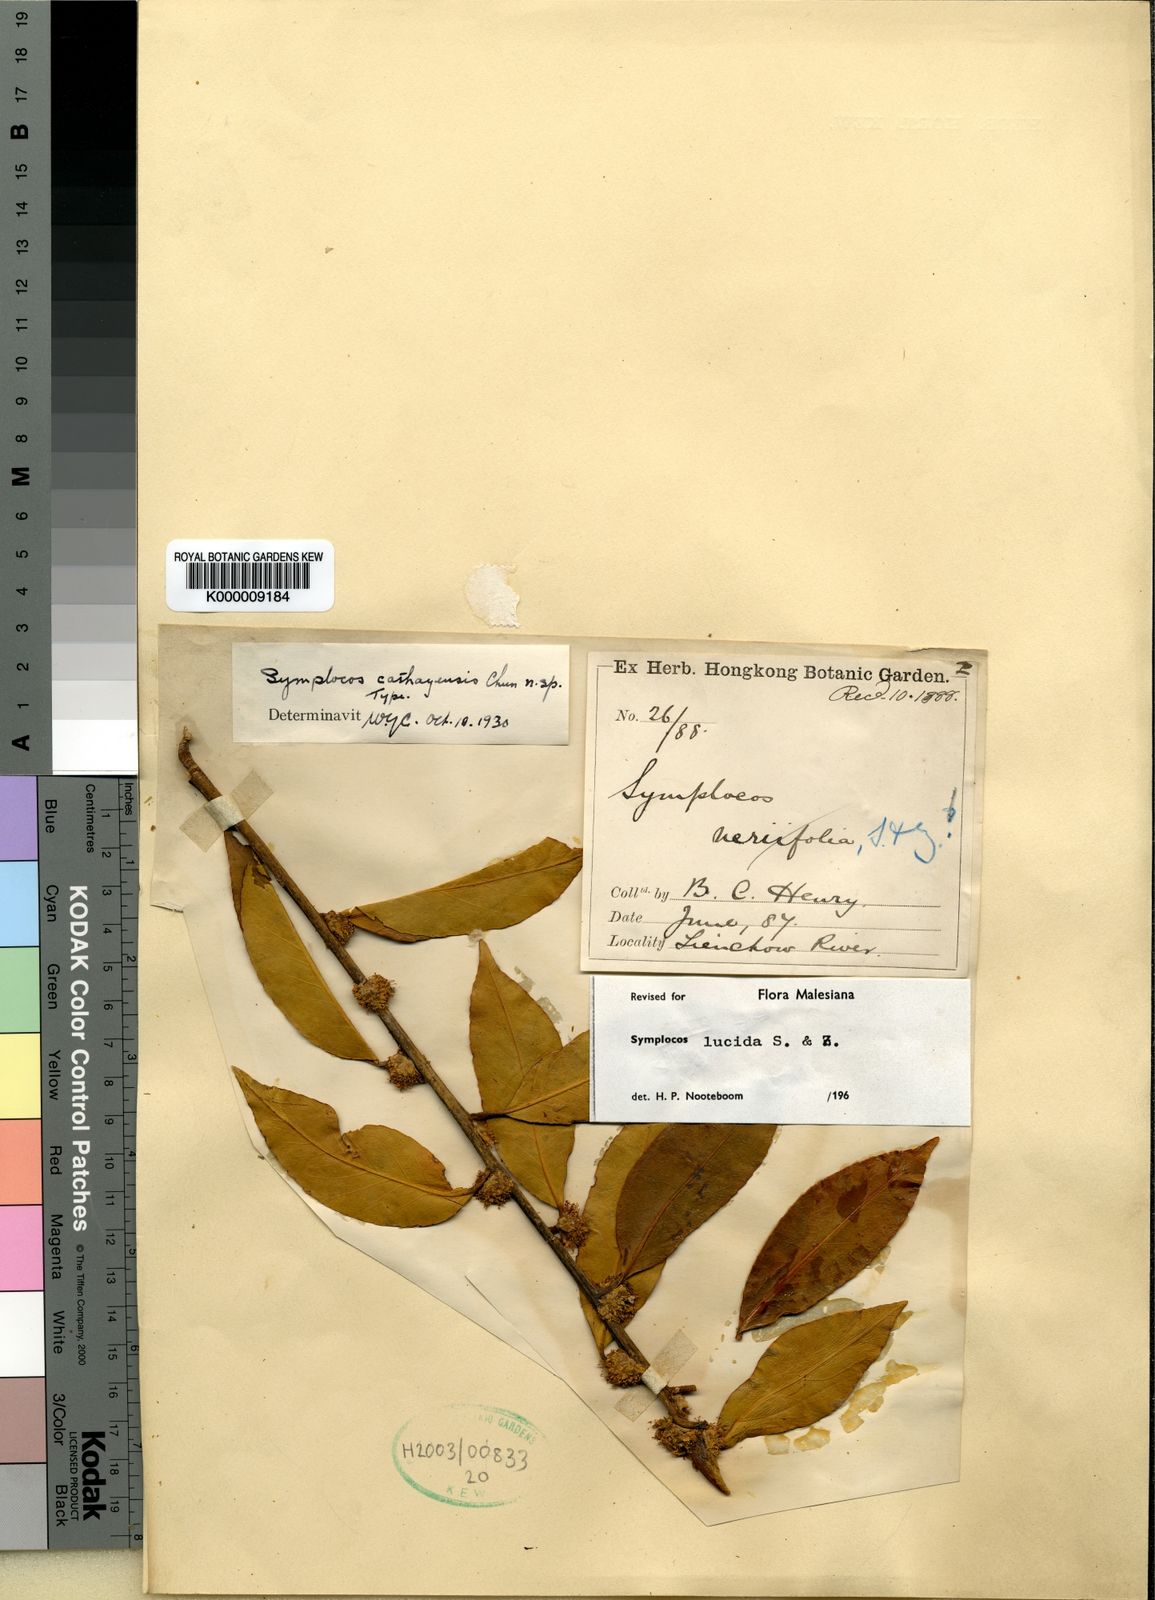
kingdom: Plantae
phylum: Tracheophyta
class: Magnoliopsida
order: Ericales
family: Symplocaceae
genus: Symplocos
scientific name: Symplocos
